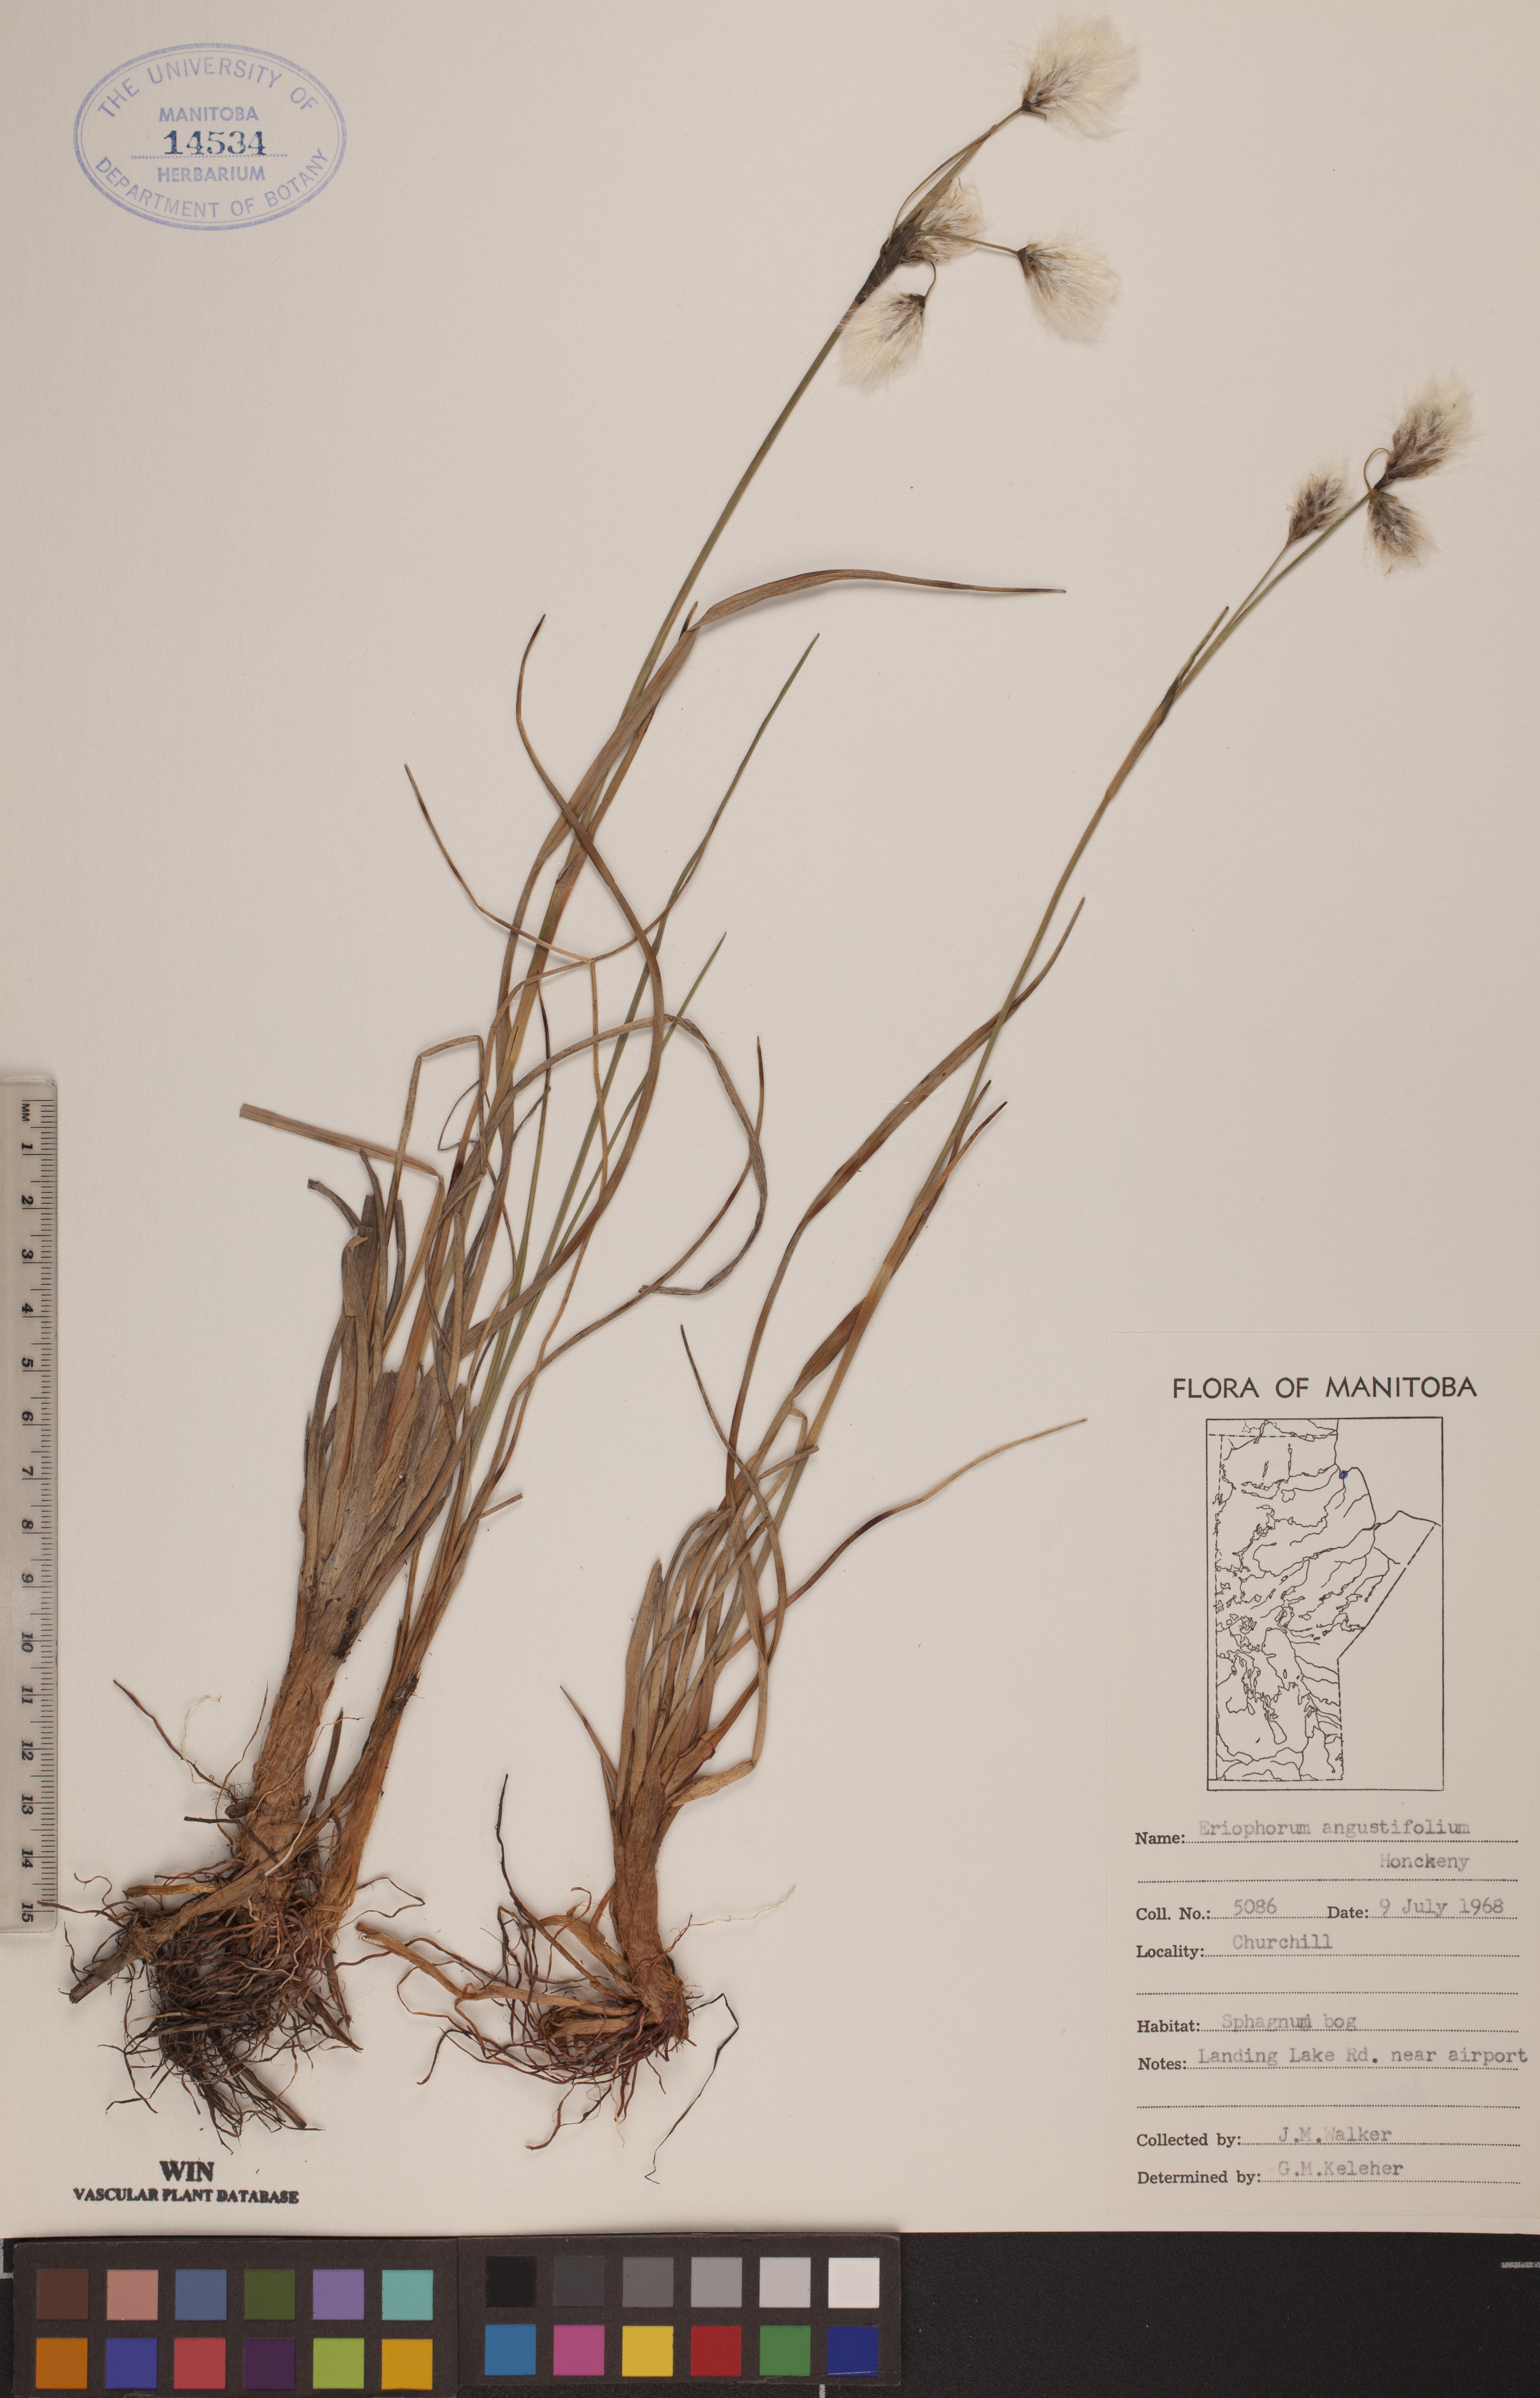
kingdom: Plantae
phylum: Tracheophyta
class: Liliopsida
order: Poales
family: Cyperaceae
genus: Eriophorum
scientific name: Eriophorum angustifolium
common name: Common cottongrass
